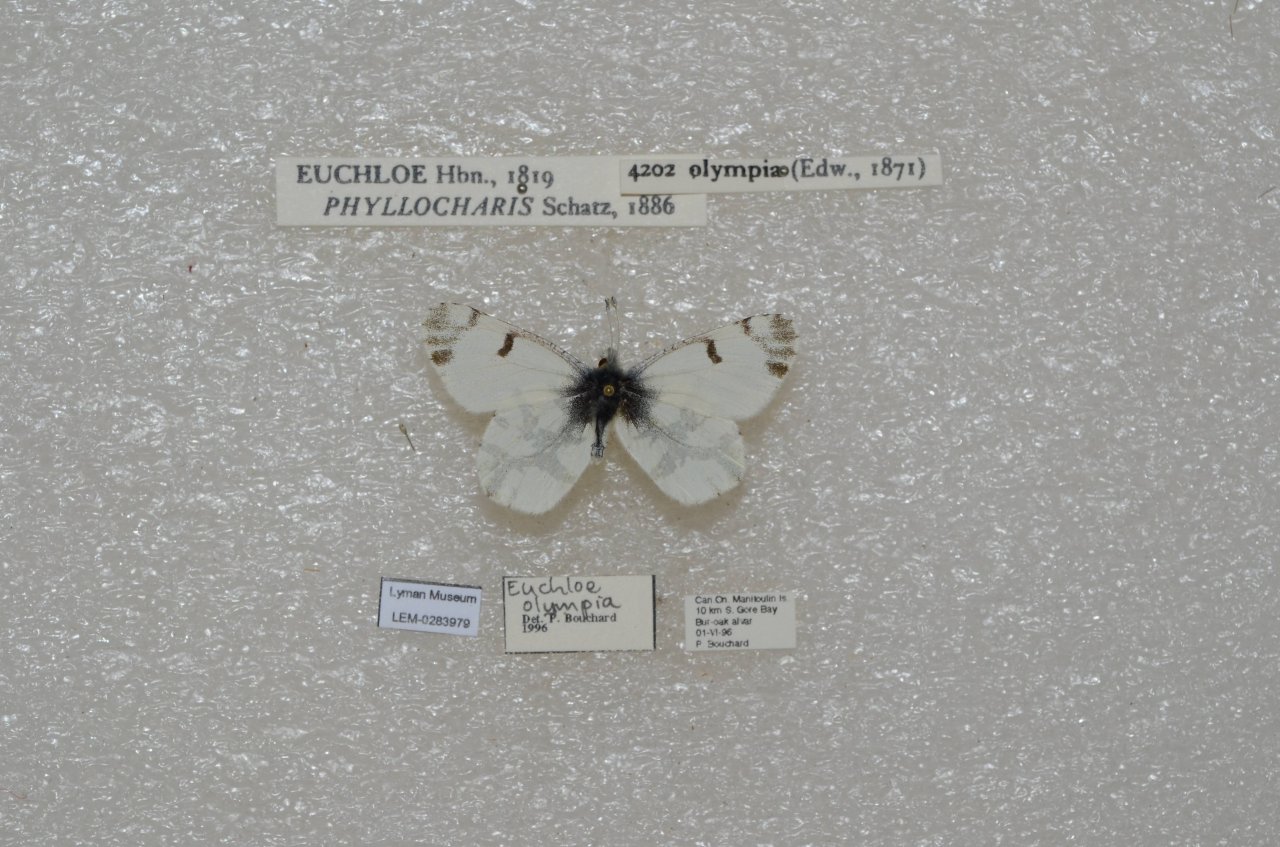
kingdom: Animalia
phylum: Arthropoda
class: Insecta
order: Lepidoptera
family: Pieridae
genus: Euchloe
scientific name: Euchloe olympia
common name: Olympia Marble
